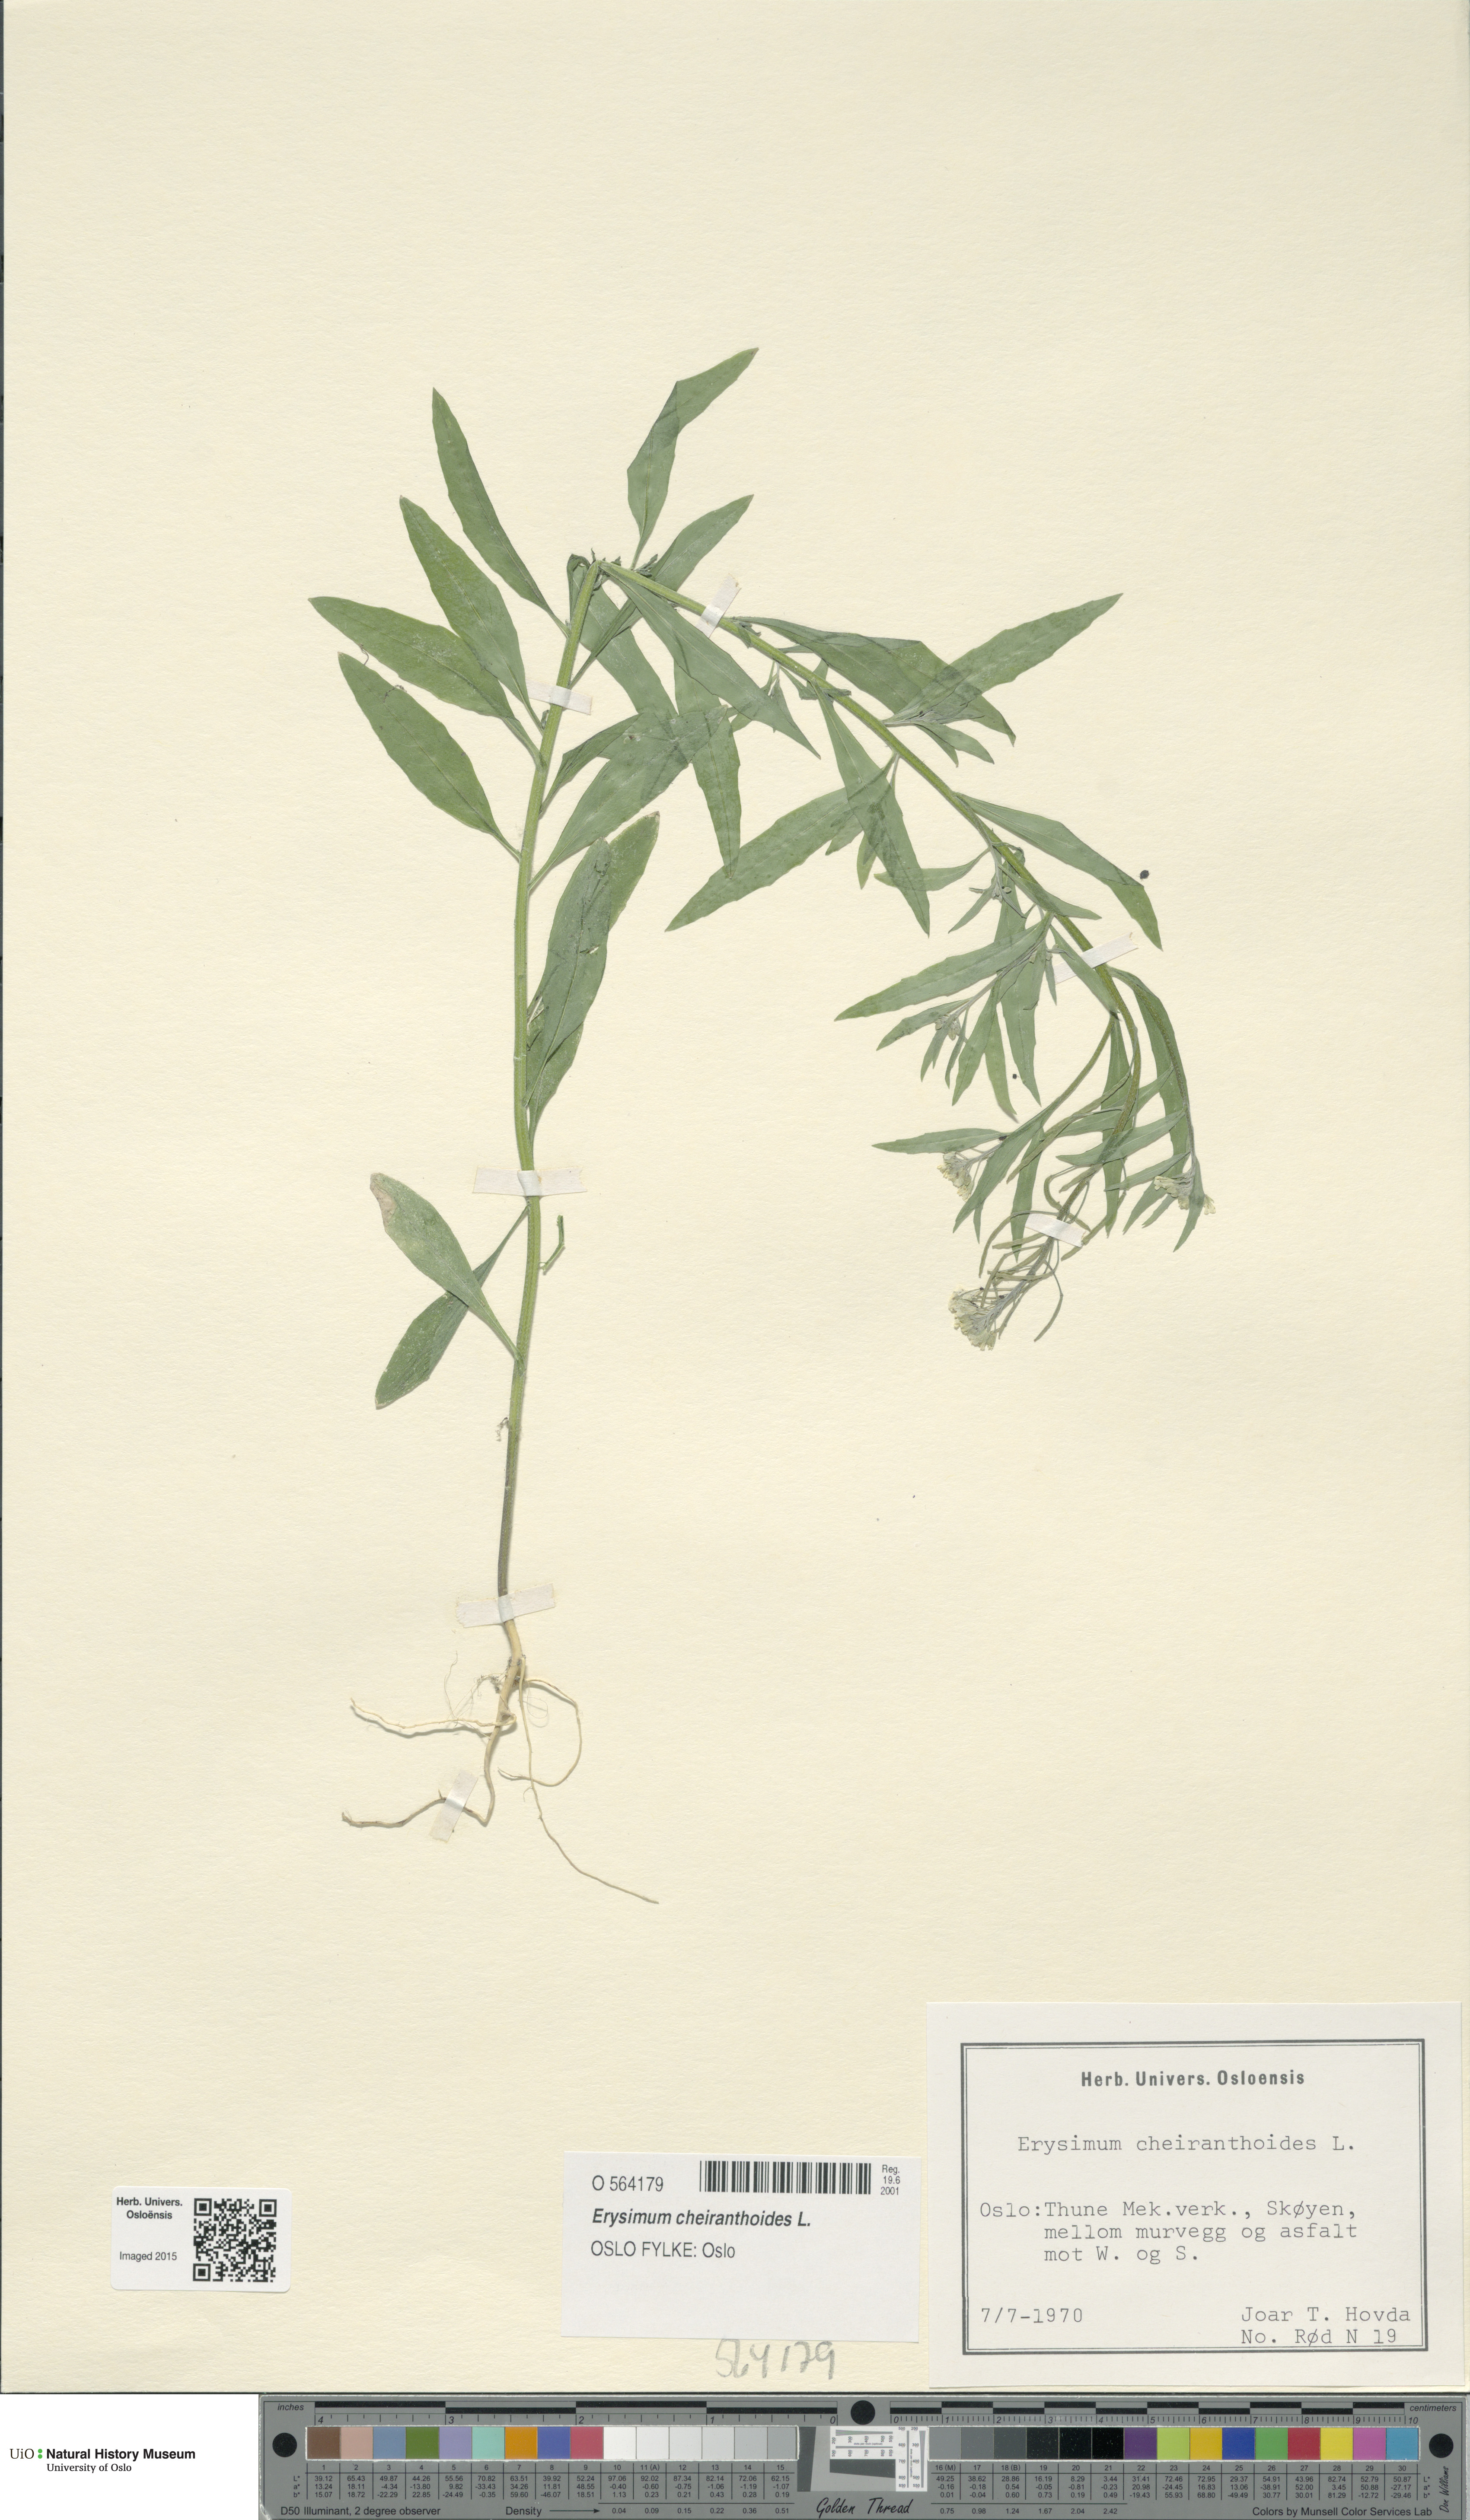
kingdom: Plantae
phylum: Tracheophyta
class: Magnoliopsida
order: Brassicales
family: Brassicaceae
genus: Erysimum
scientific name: Erysimum cheiranthoides
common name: Treacle mustard
